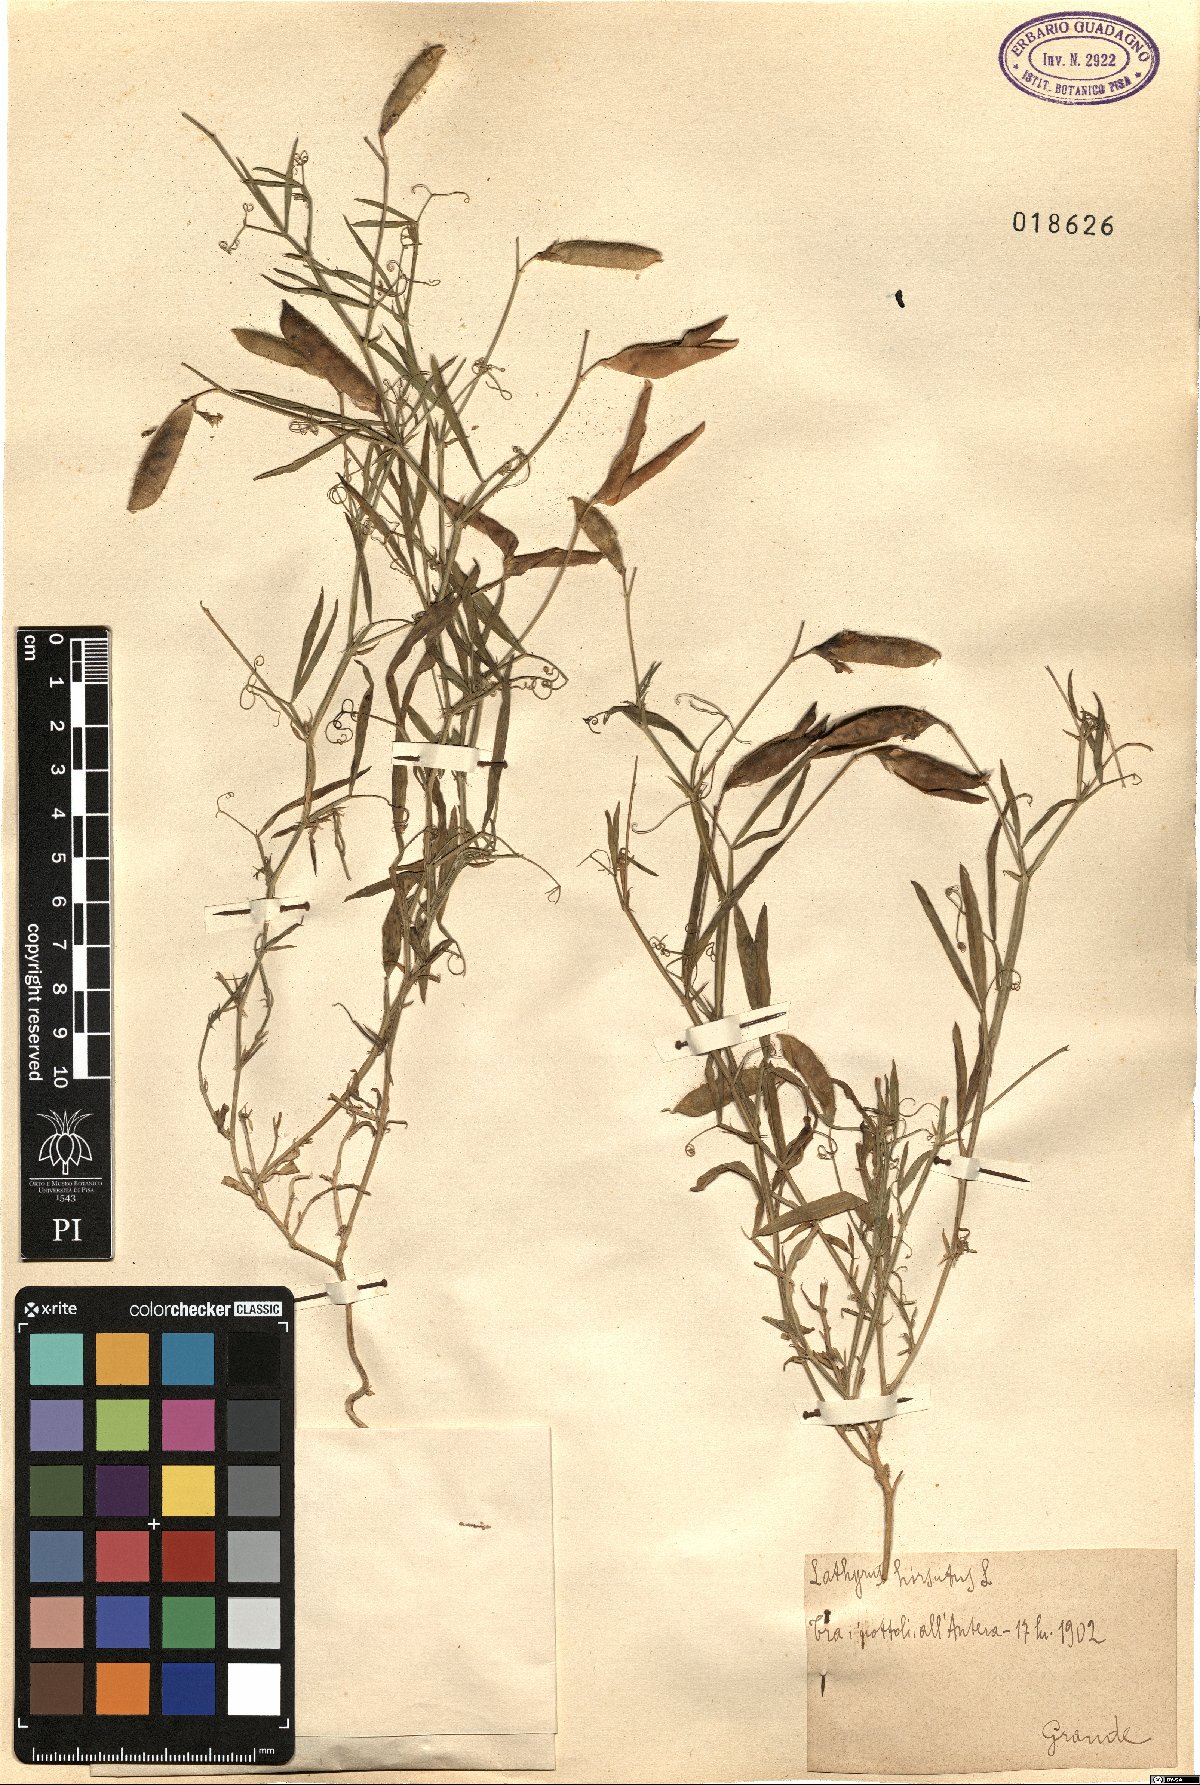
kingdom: Plantae
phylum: Tracheophyta
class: Magnoliopsida
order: Fabales
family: Fabaceae
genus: Lathyrus
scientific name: Lathyrus hirsutus
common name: Hairy vetchling
